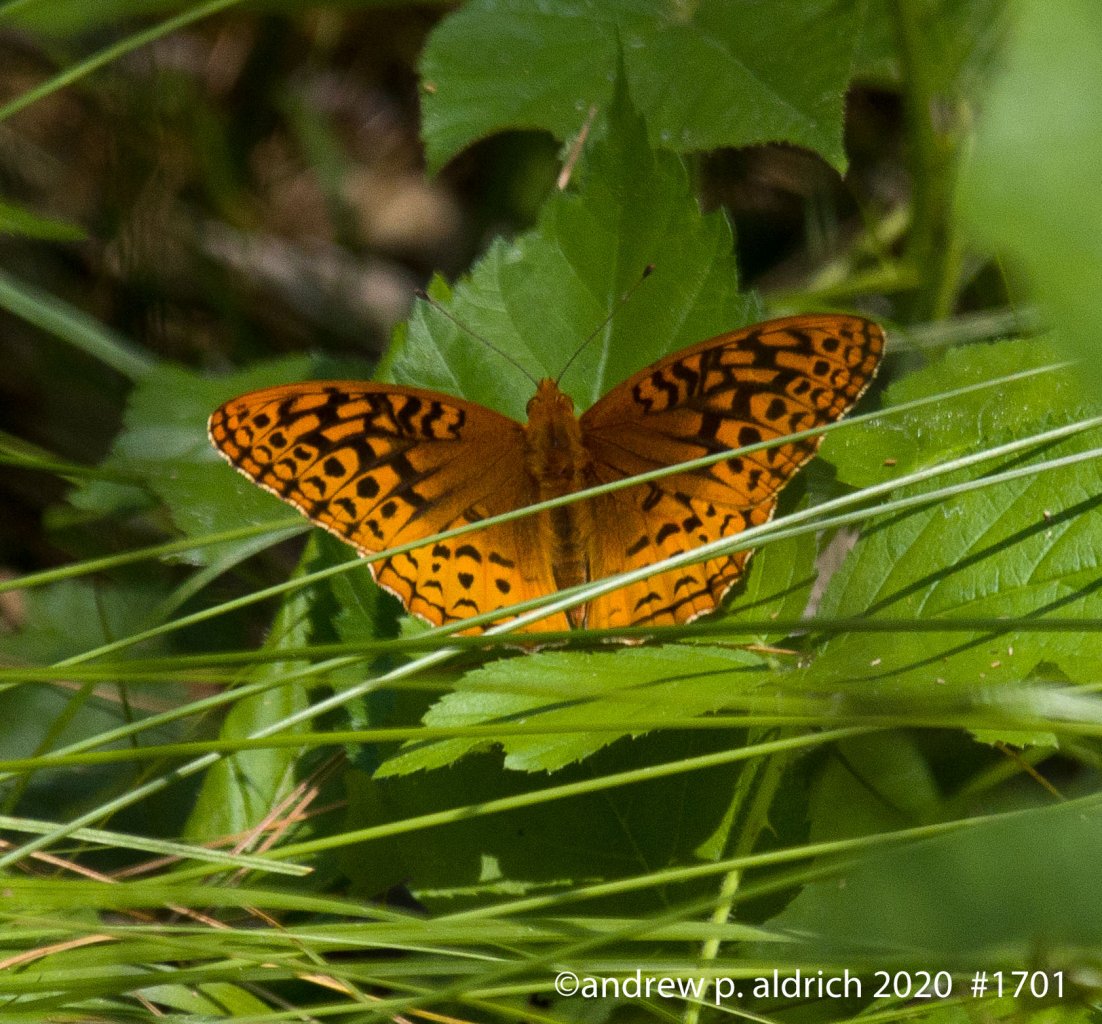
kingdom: Animalia
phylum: Arthropoda
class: Insecta
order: Lepidoptera
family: Nymphalidae
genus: Speyeria
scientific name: Speyeria cybele
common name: Great Spangled Fritillary
